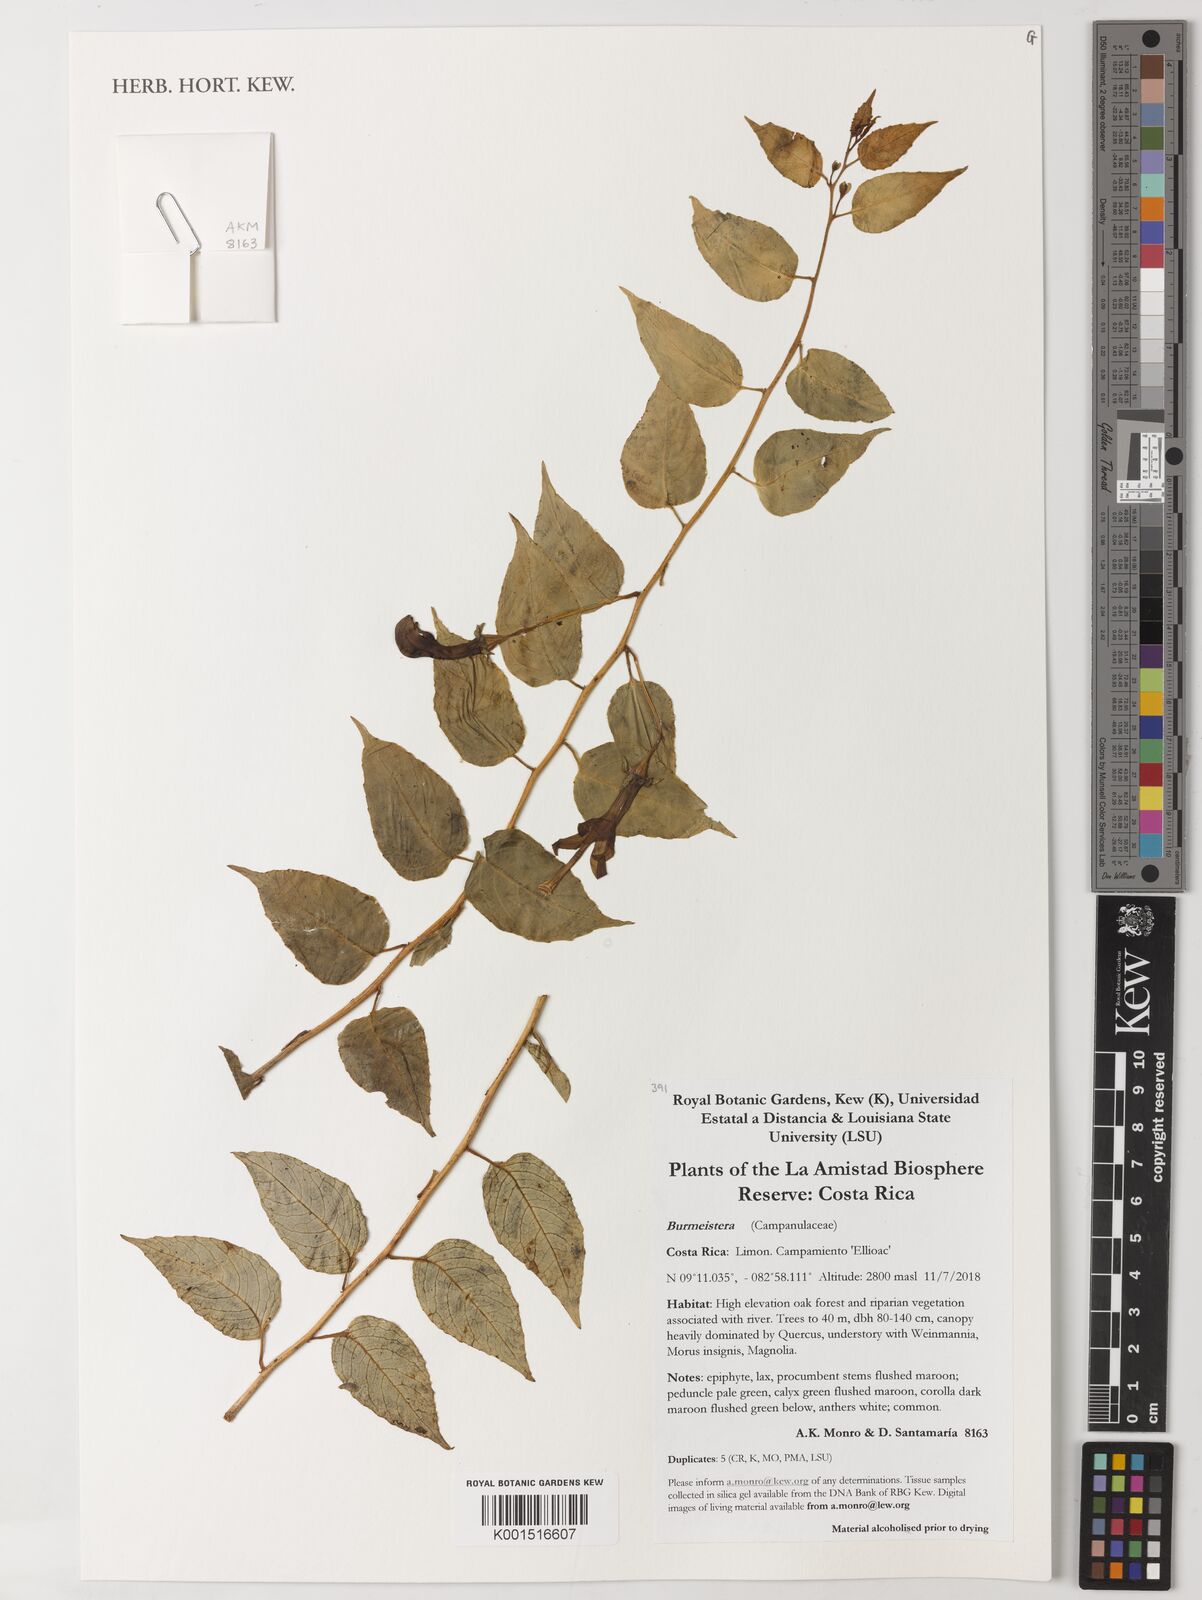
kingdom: Plantae
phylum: Tracheophyta
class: Magnoliopsida
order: Asterales
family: Campanulaceae
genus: Burmeistera
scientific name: Burmeistera
